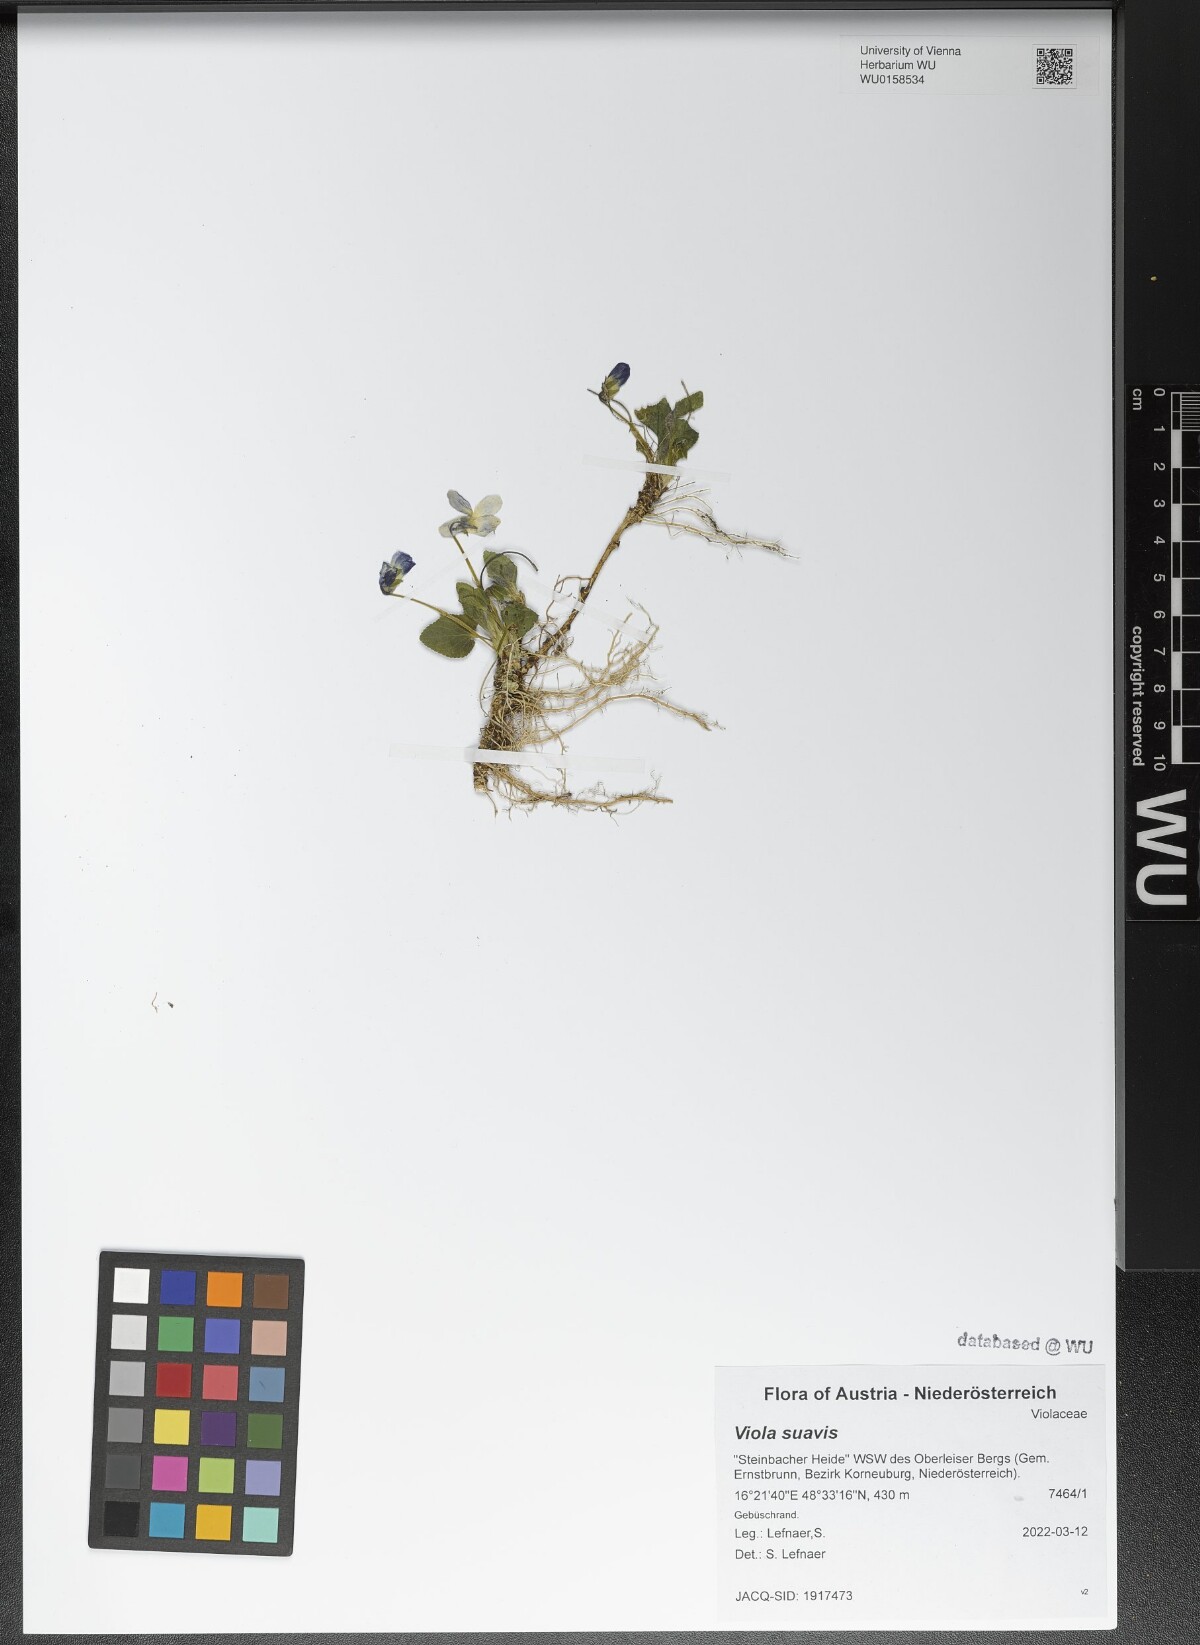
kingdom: Plantae
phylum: Tracheophyta
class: Magnoliopsida
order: Malpighiales
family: Violaceae
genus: Viola
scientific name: Viola suavis
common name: Russian violet
